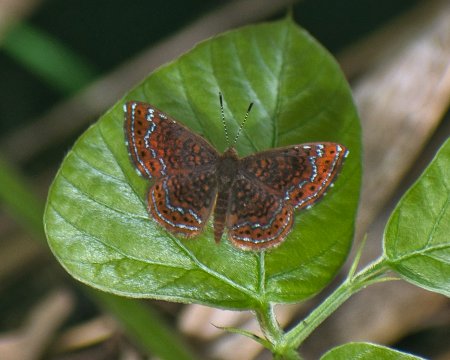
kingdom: Animalia
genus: Calephelis
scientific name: Calephelis schausi
